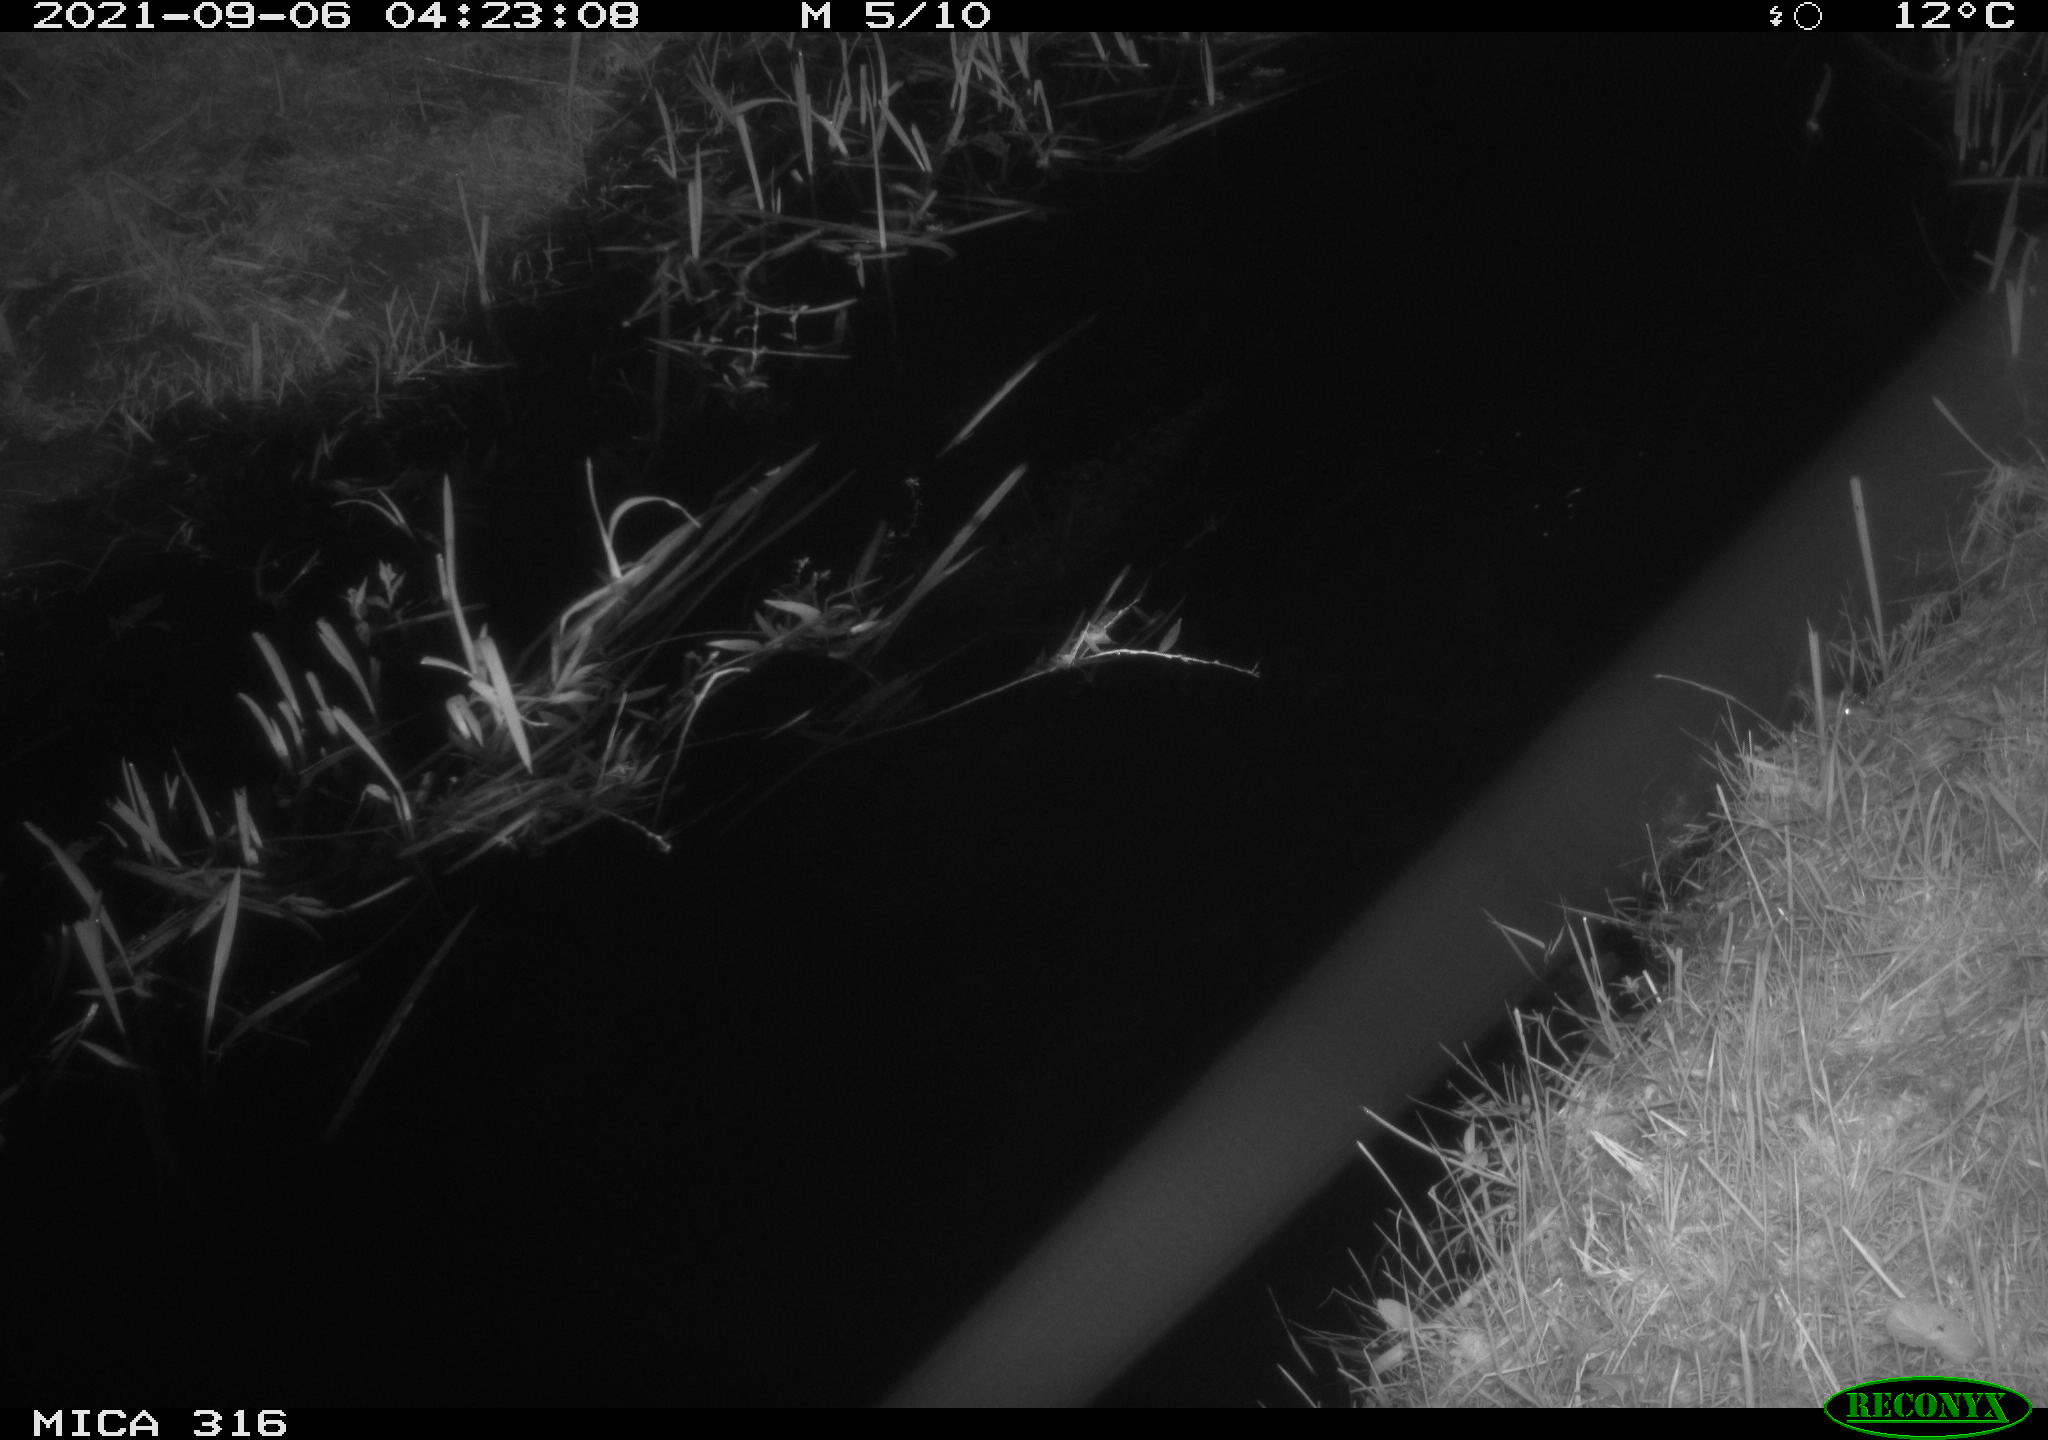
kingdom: Animalia
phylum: Chordata
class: Mammalia
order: Rodentia
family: Muridae
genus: Rattus
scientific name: Rattus norvegicus
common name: Brown rat
